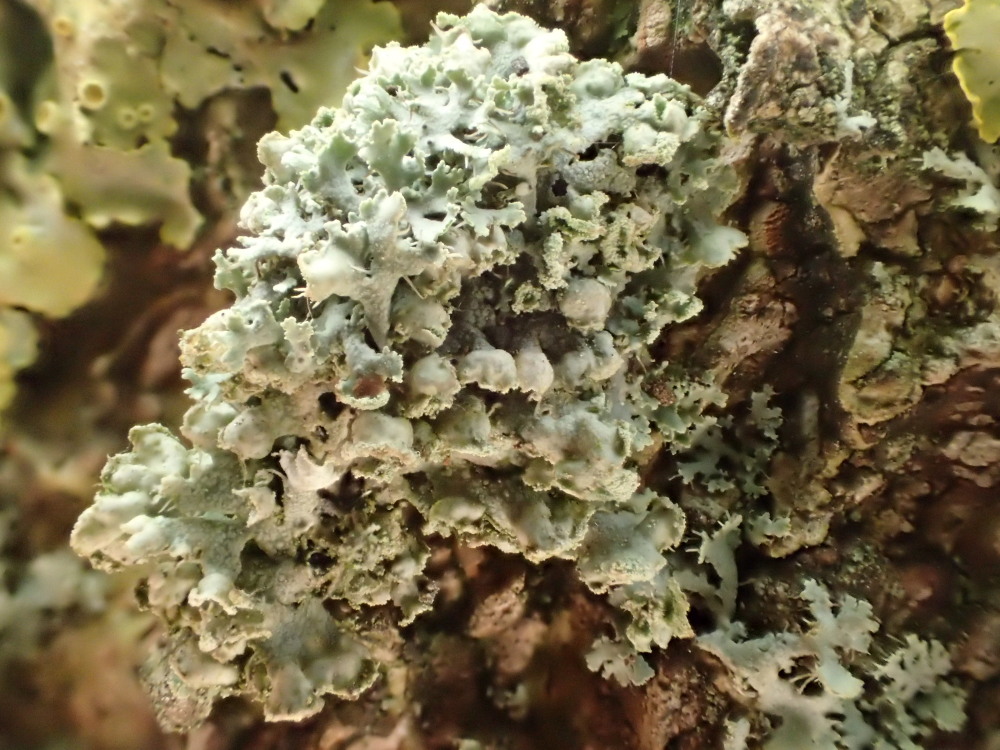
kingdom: Fungi
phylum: Ascomycota
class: Lecanoromycetes
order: Caliciales
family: Physciaceae
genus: Physcia
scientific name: Physcia adscendens
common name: hætte-rosetlav
